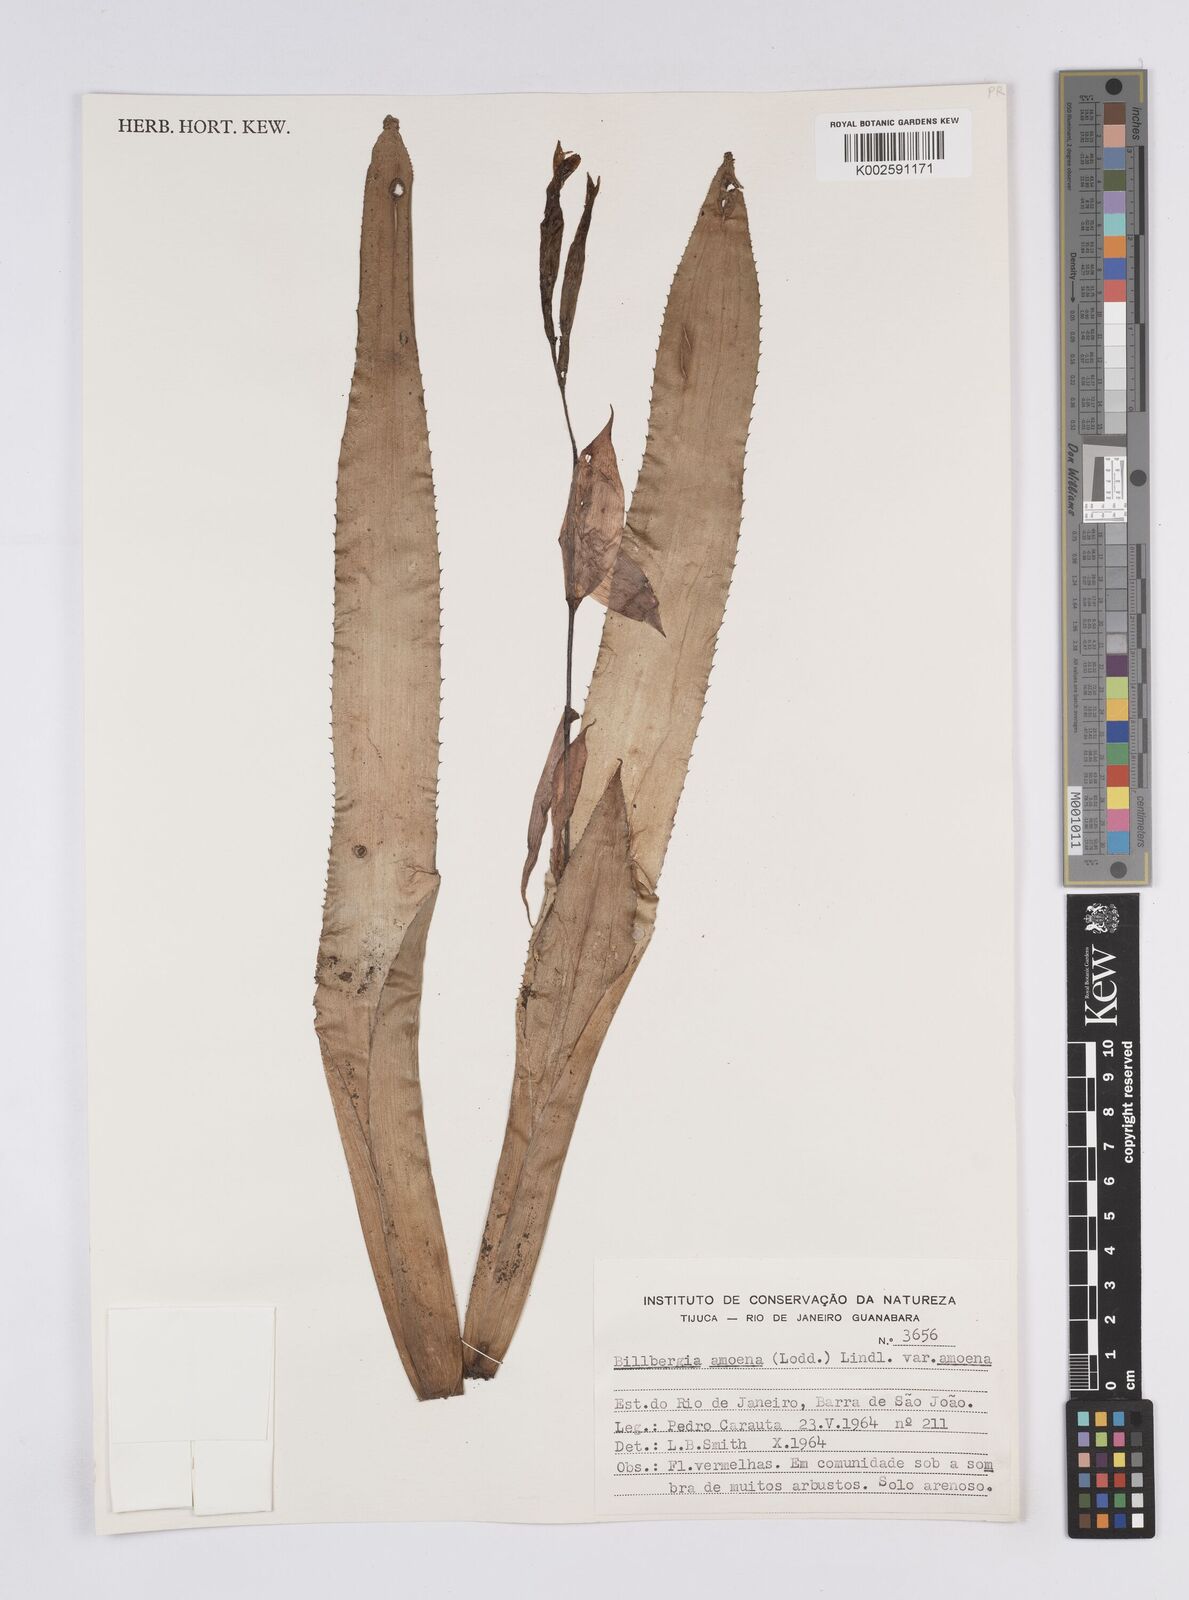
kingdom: Plantae
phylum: Tracheophyta
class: Liliopsida
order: Poales
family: Bromeliaceae
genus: Billbergia
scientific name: Billbergia amoena
